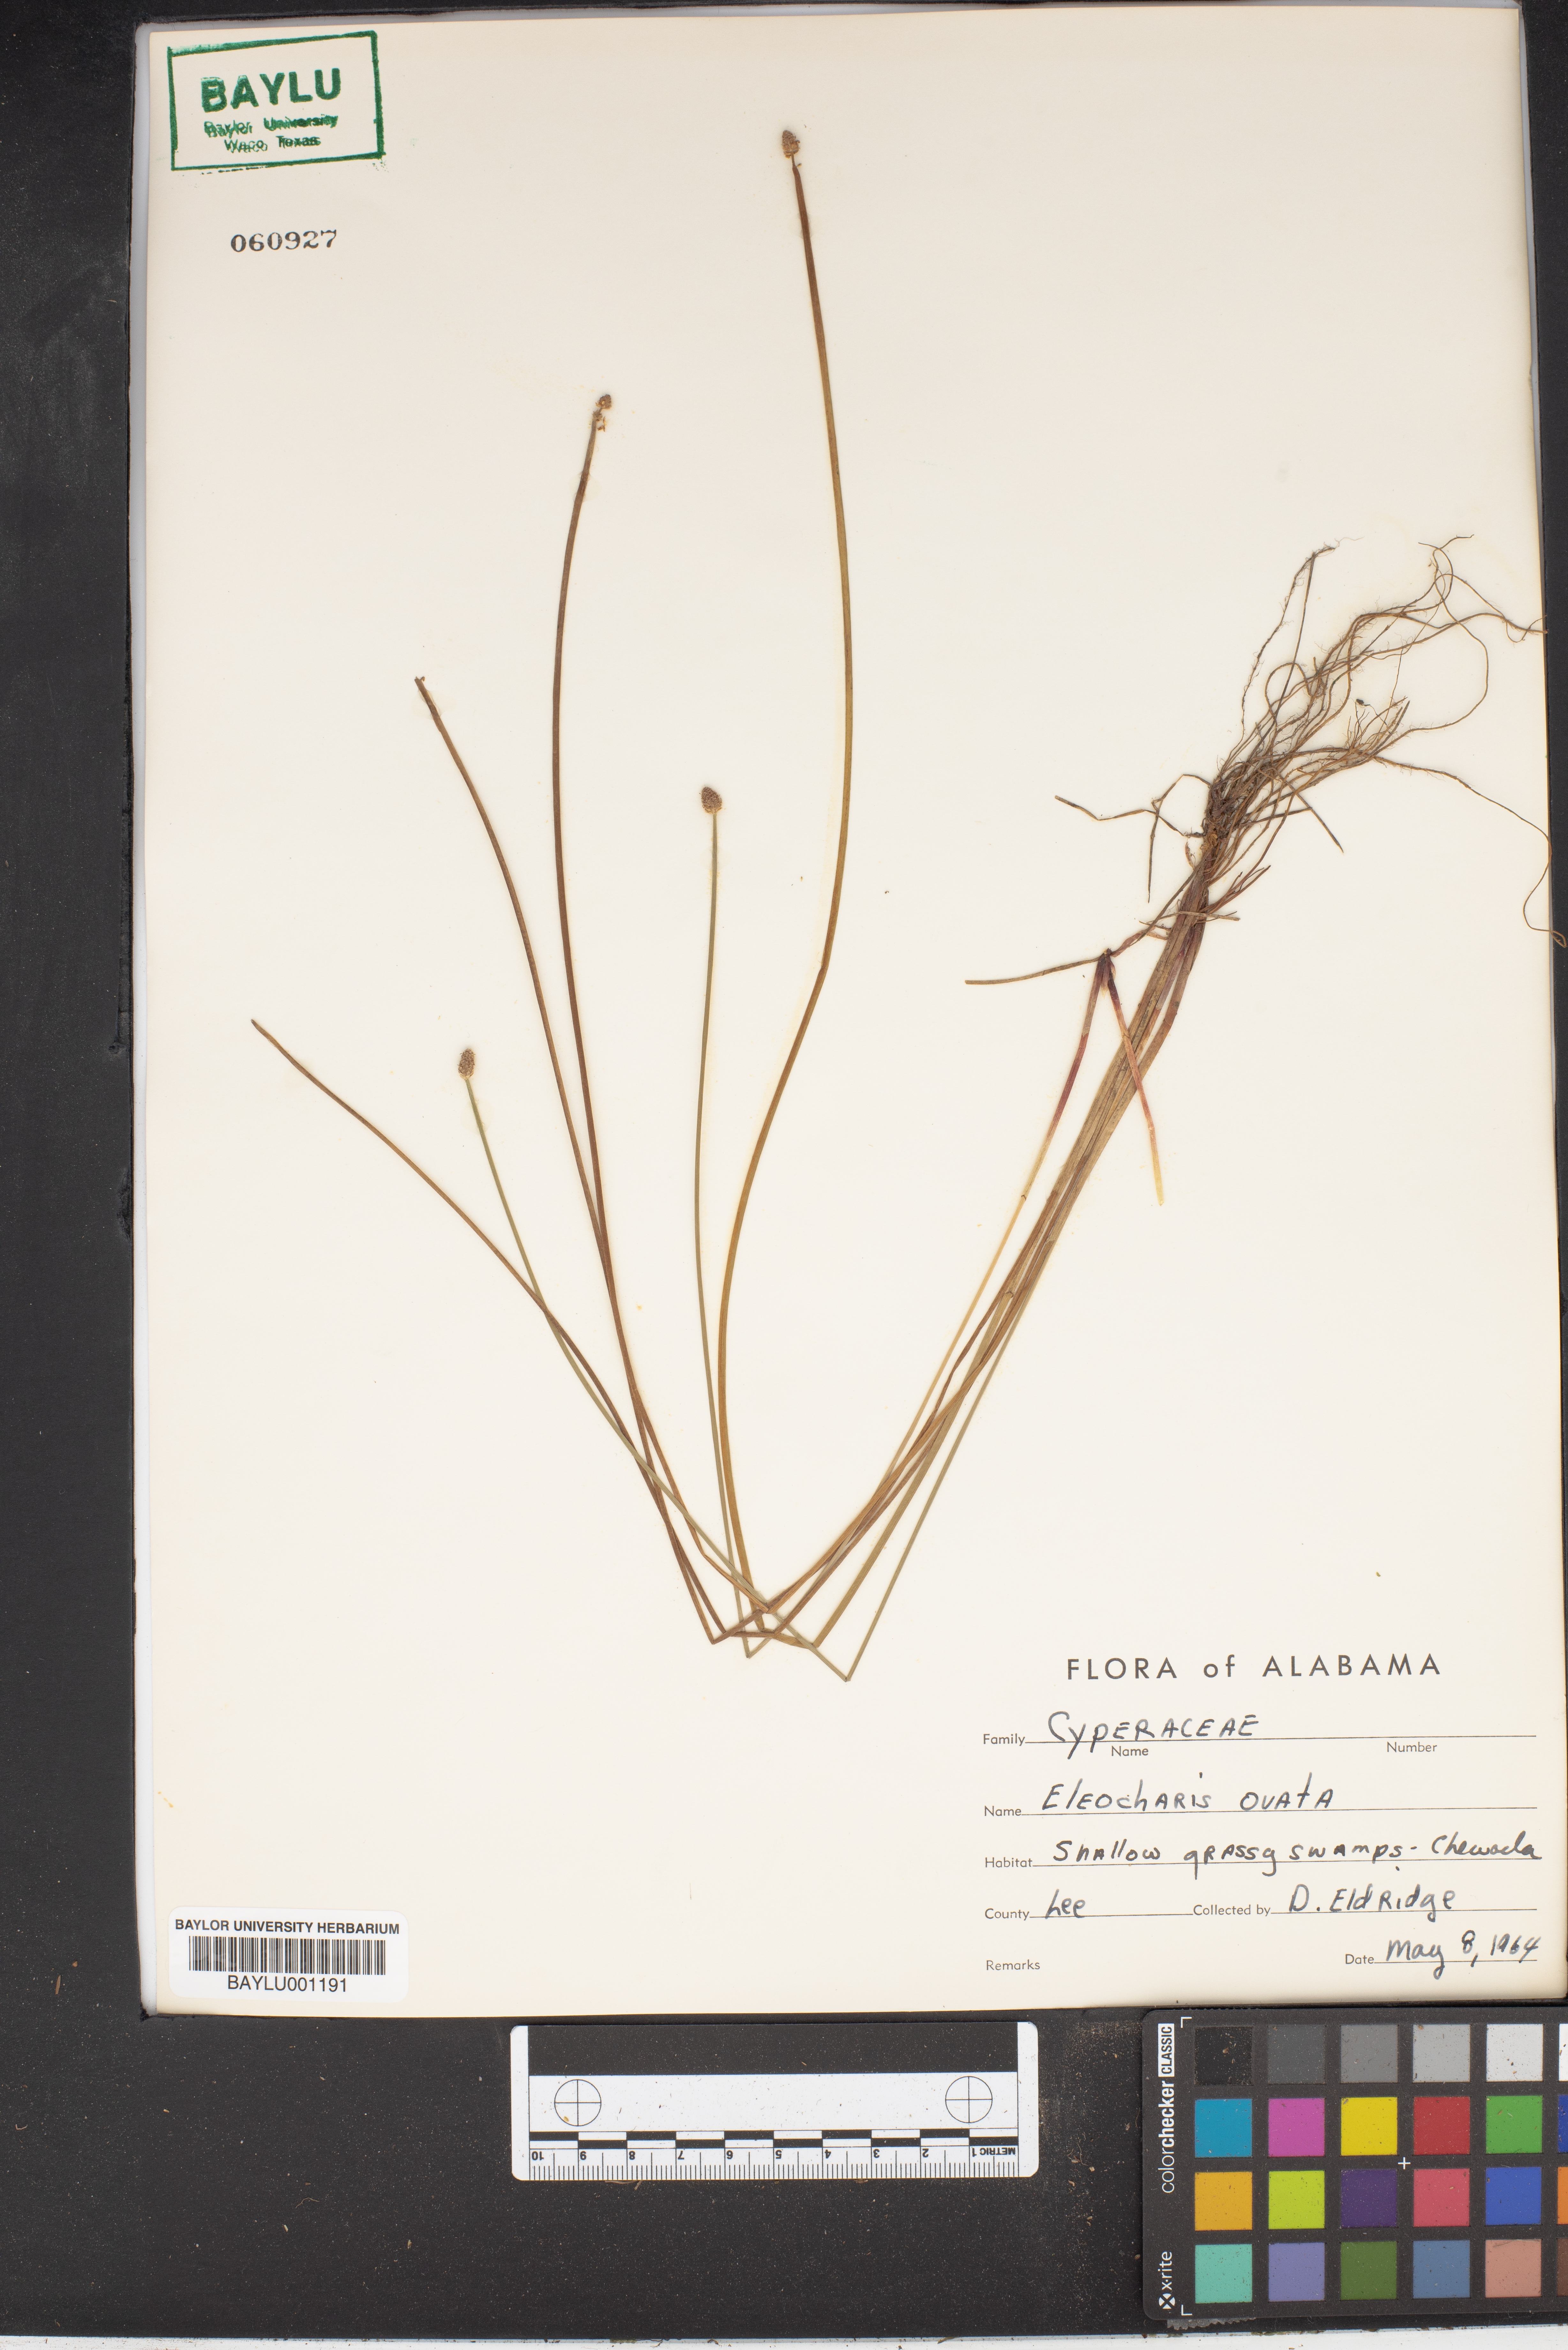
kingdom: Plantae
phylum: Tracheophyta
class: Liliopsida
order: Poales
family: Cyperaceae
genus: Eleocharis
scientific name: Eleocharis ovata
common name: Oval spike-rush
